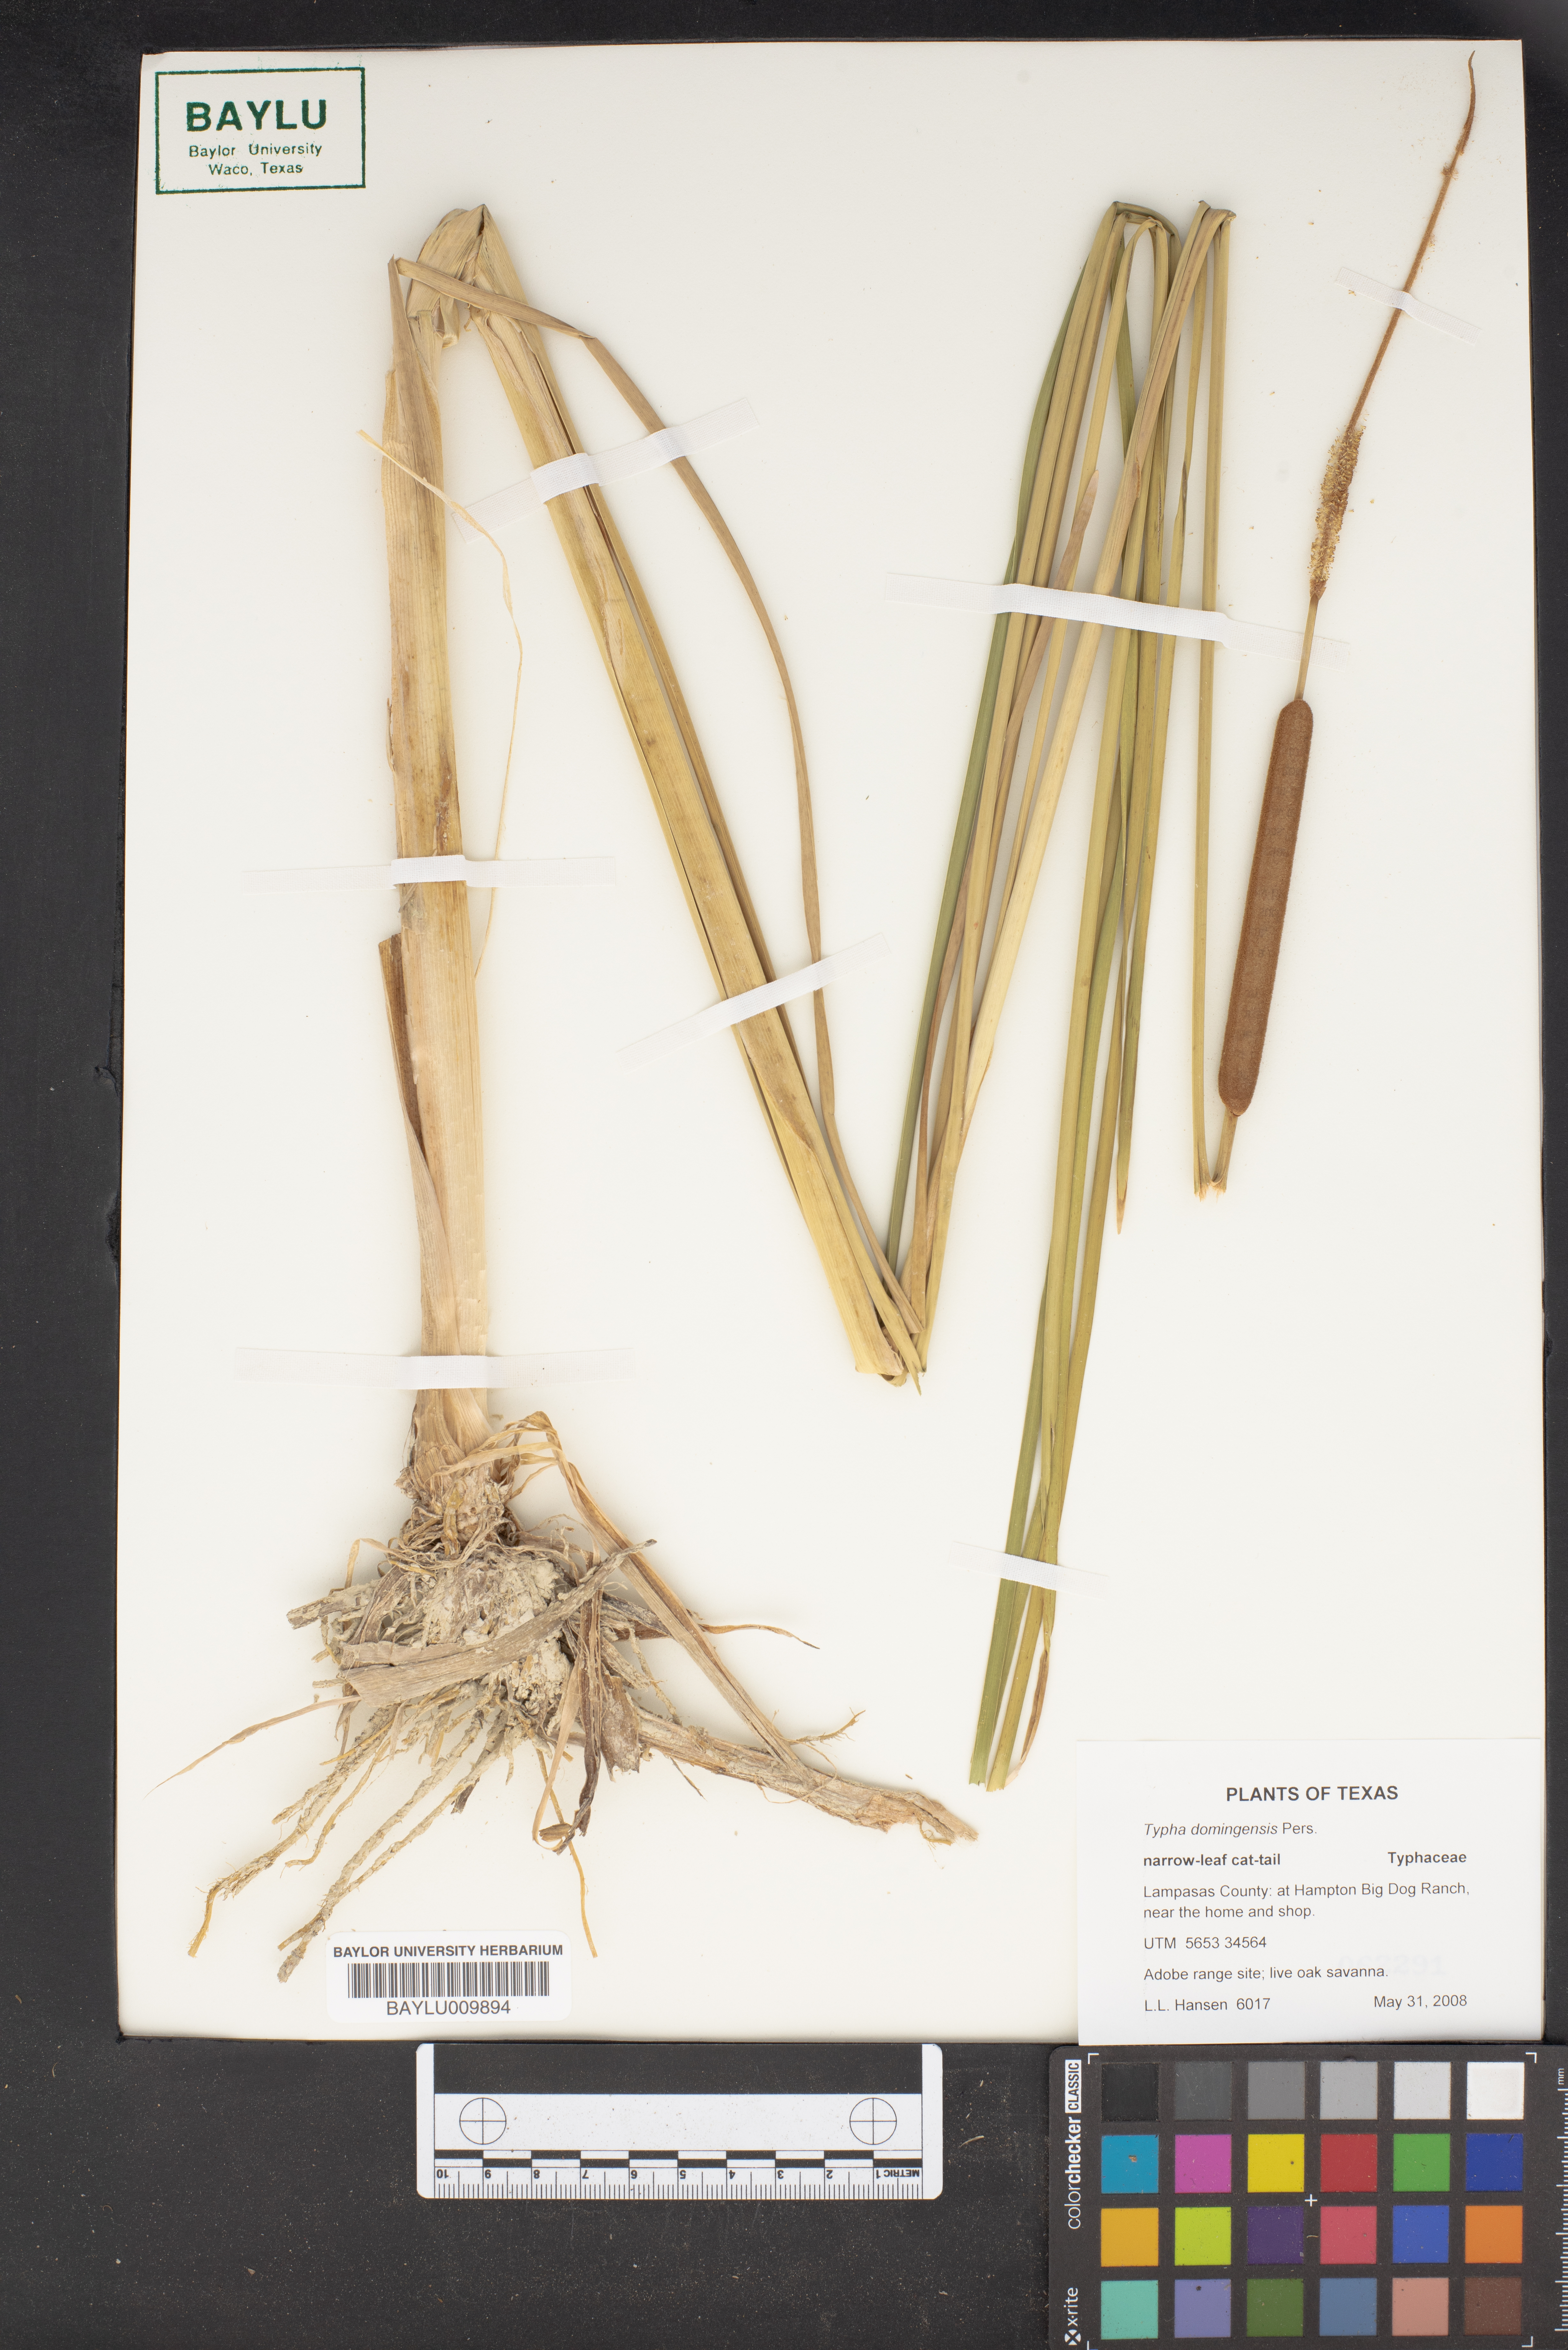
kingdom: Plantae
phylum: Tracheophyta
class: Liliopsida
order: Poales
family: Typhaceae
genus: Typha
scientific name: Typha domingensis
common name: Southern cattail
